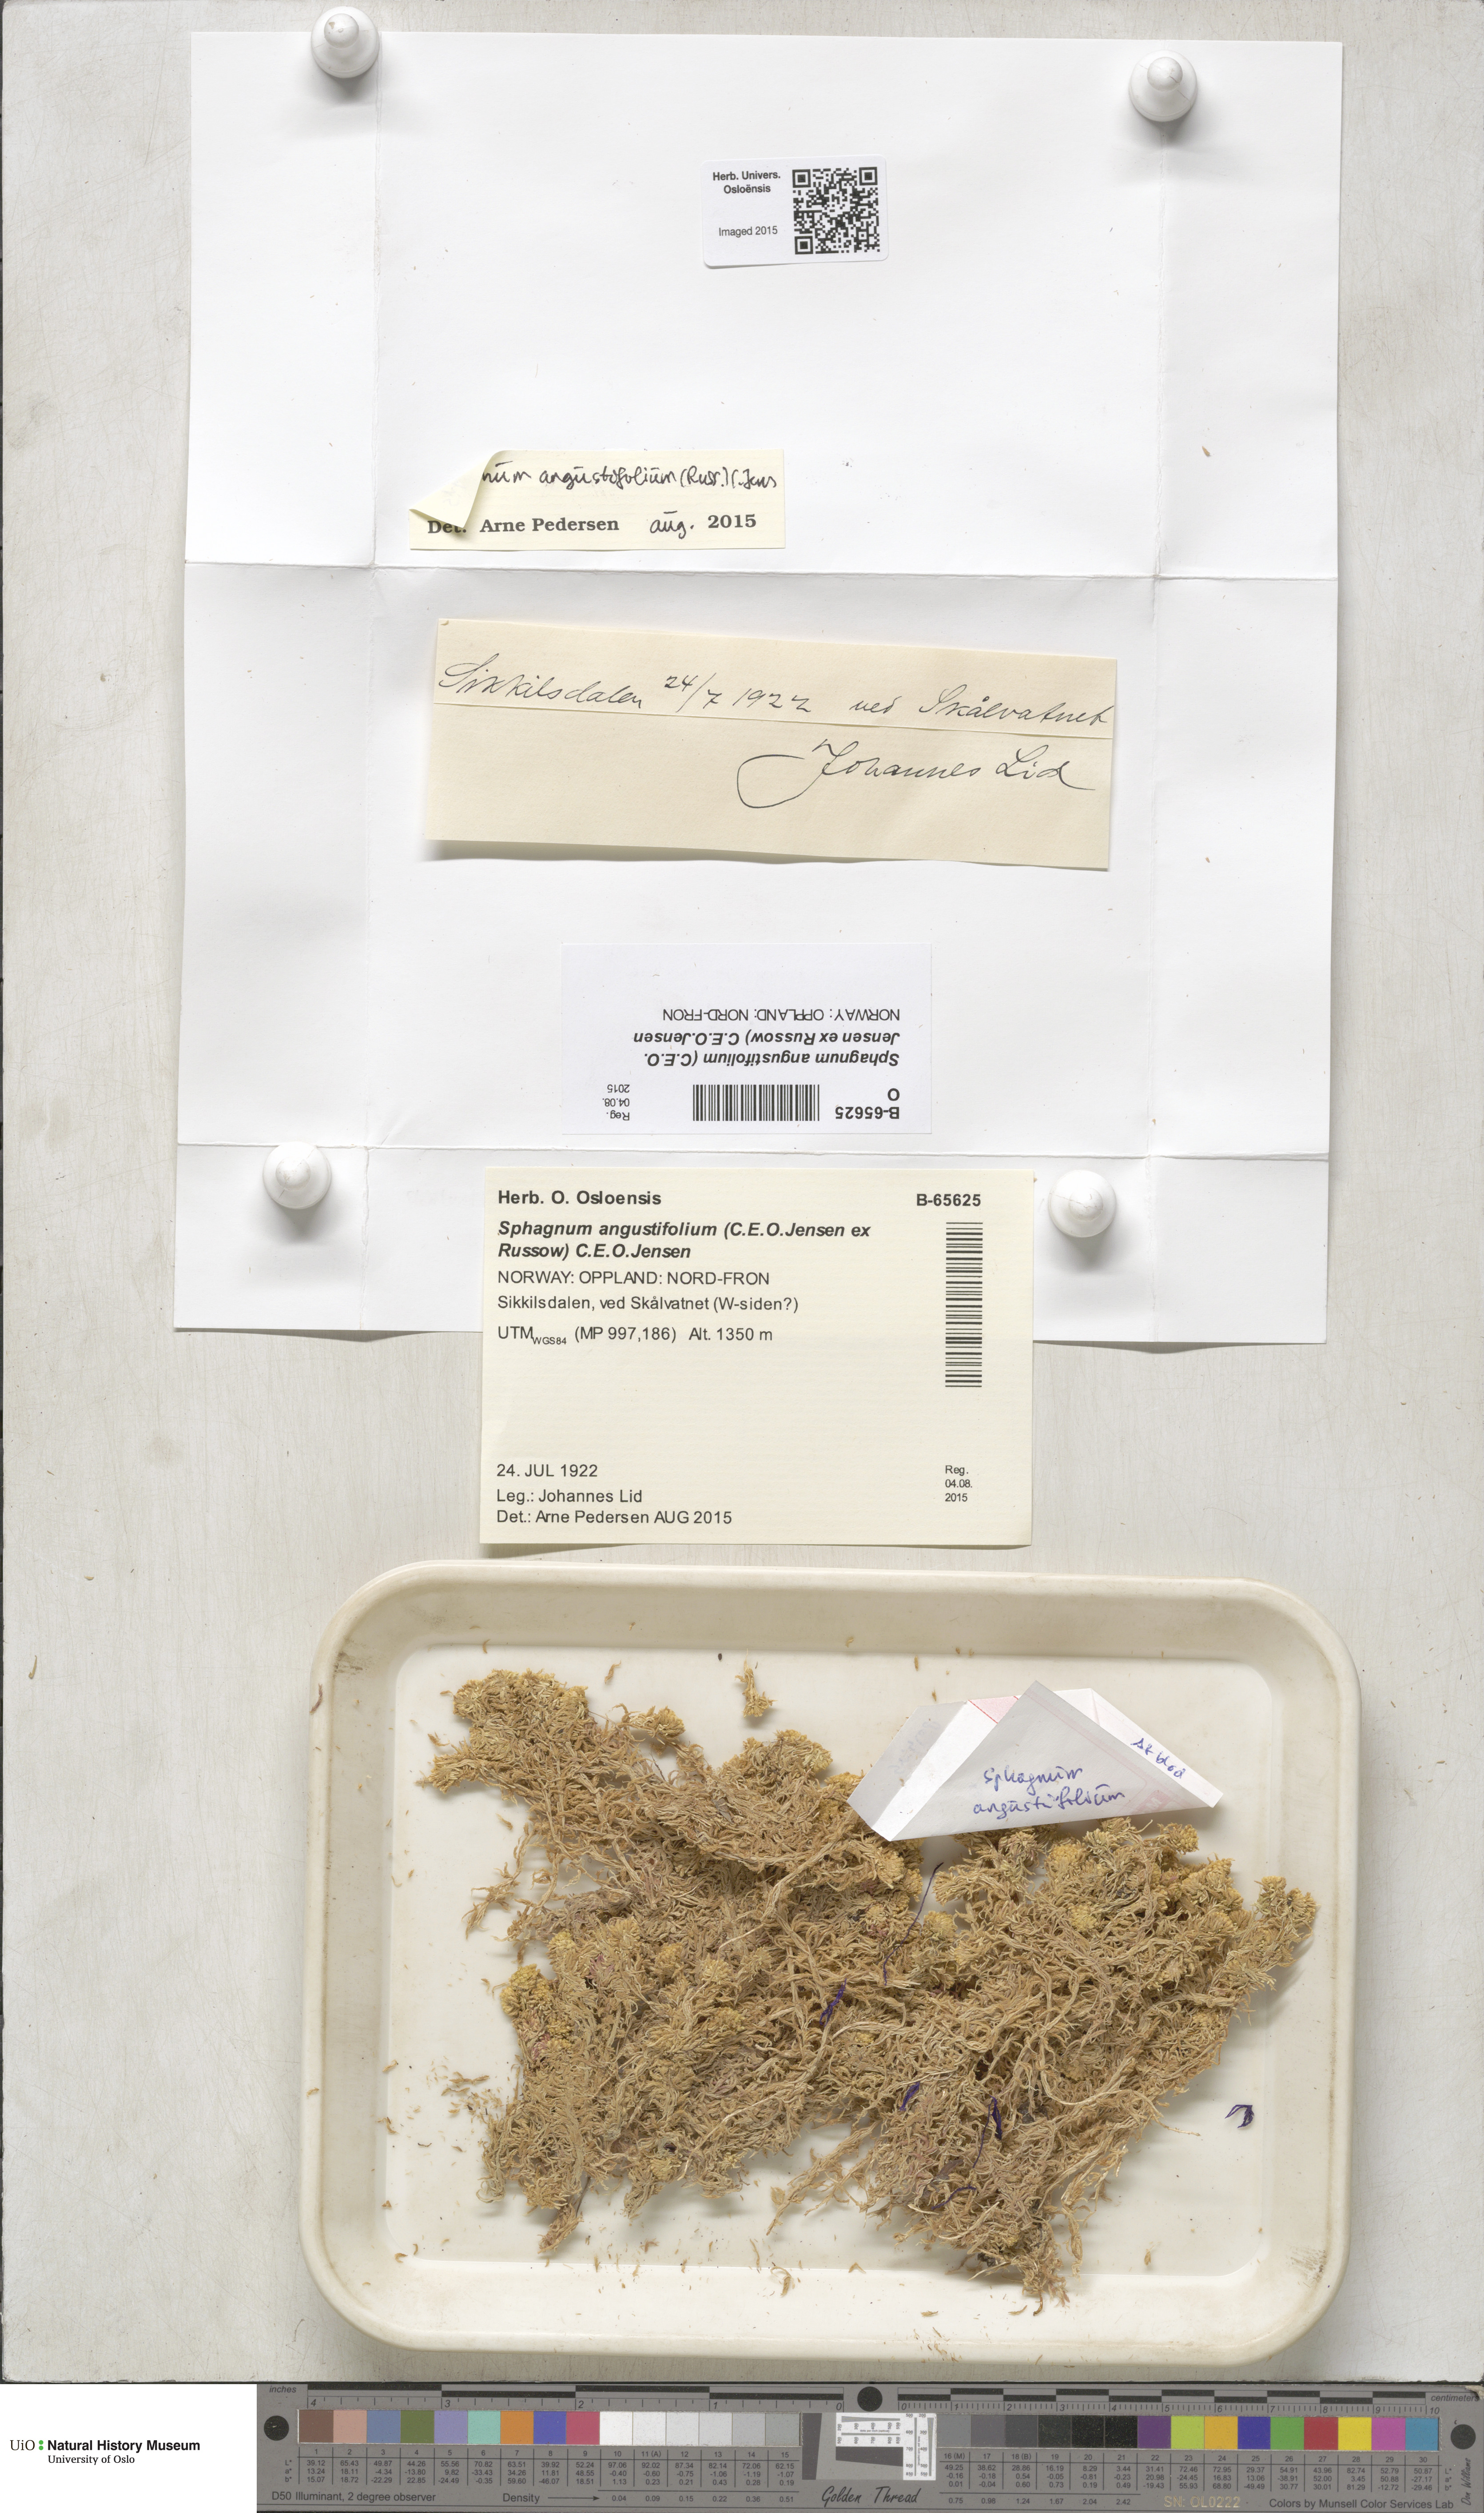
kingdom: Plantae
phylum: Bryophyta
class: Sphagnopsida
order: Sphagnales
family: Sphagnaceae
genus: Sphagnum
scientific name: Sphagnum angustifolium
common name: Narrow-leaved peat moss
